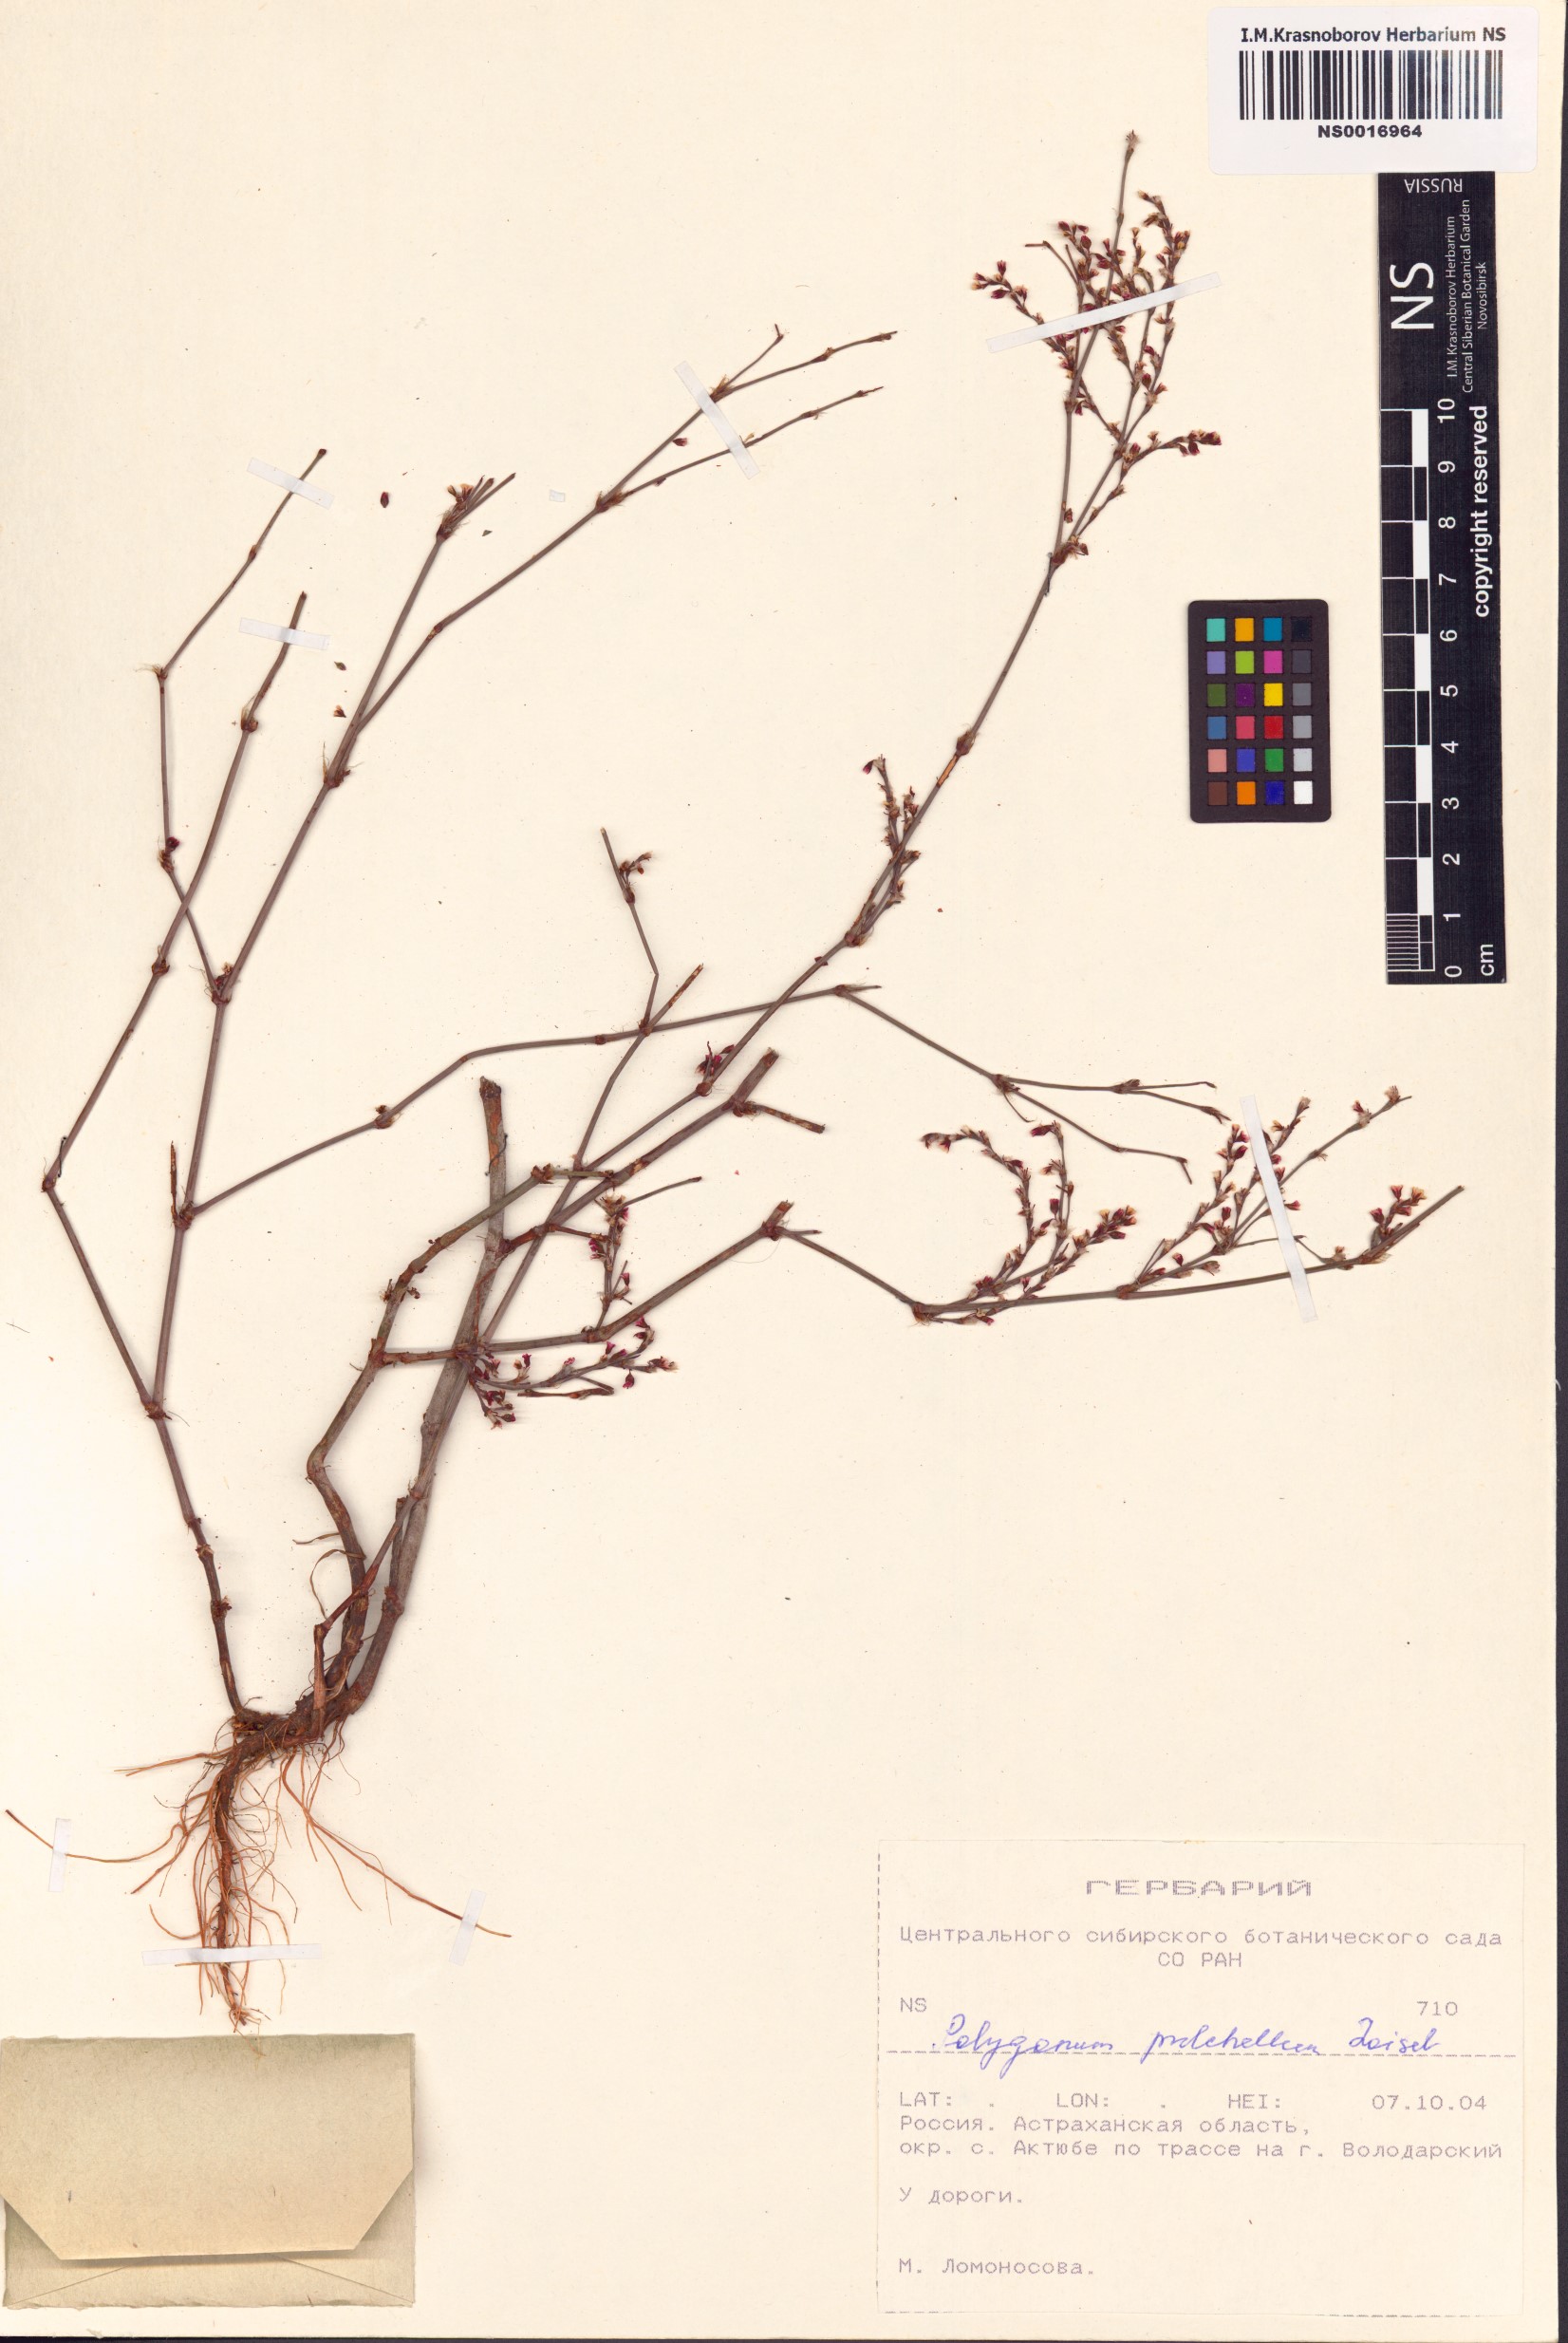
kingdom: Plantae
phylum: Tracheophyta
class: Magnoliopsida
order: Caryophyllales
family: Polygonaceae
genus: Polygonum
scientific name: Polygonum arenarium
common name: Lesser red-knotgrass
